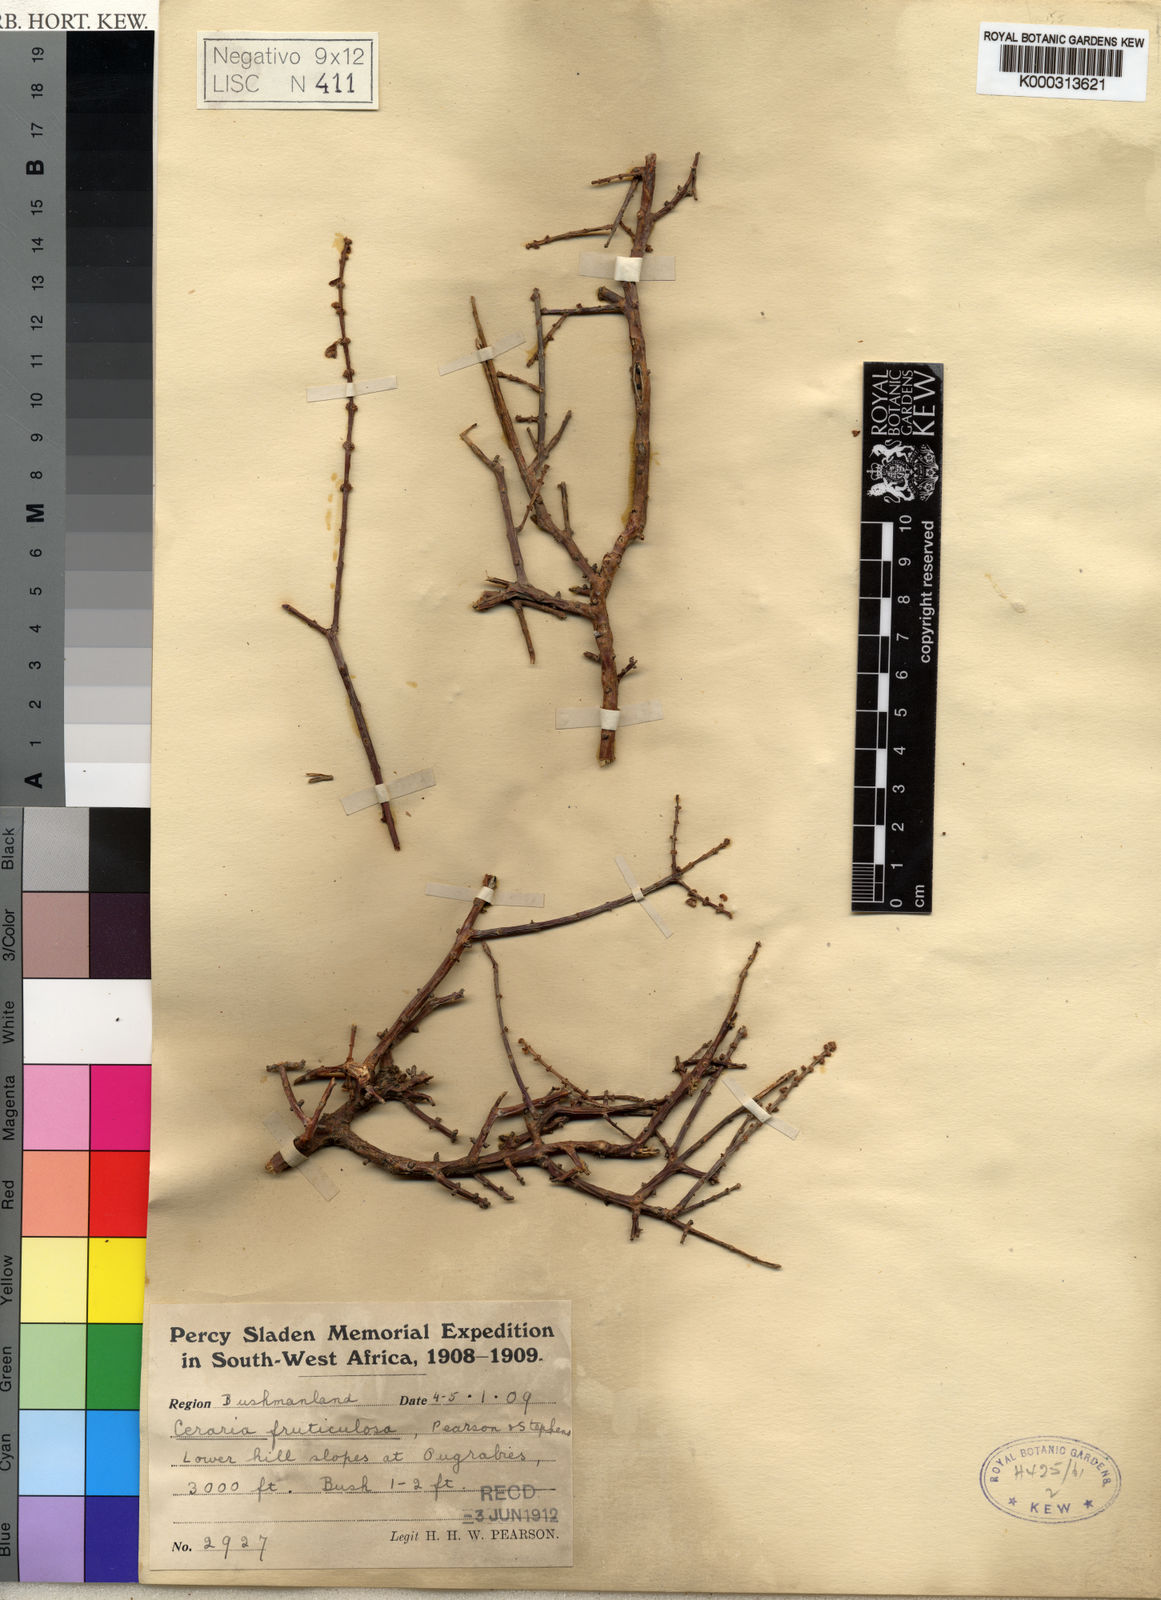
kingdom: Plantae
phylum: Tracheophyta
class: Magnoliopsida
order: Caryophyllales
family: Didiereaceae
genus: Portulacaria
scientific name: Portulacaria fruticulosa
